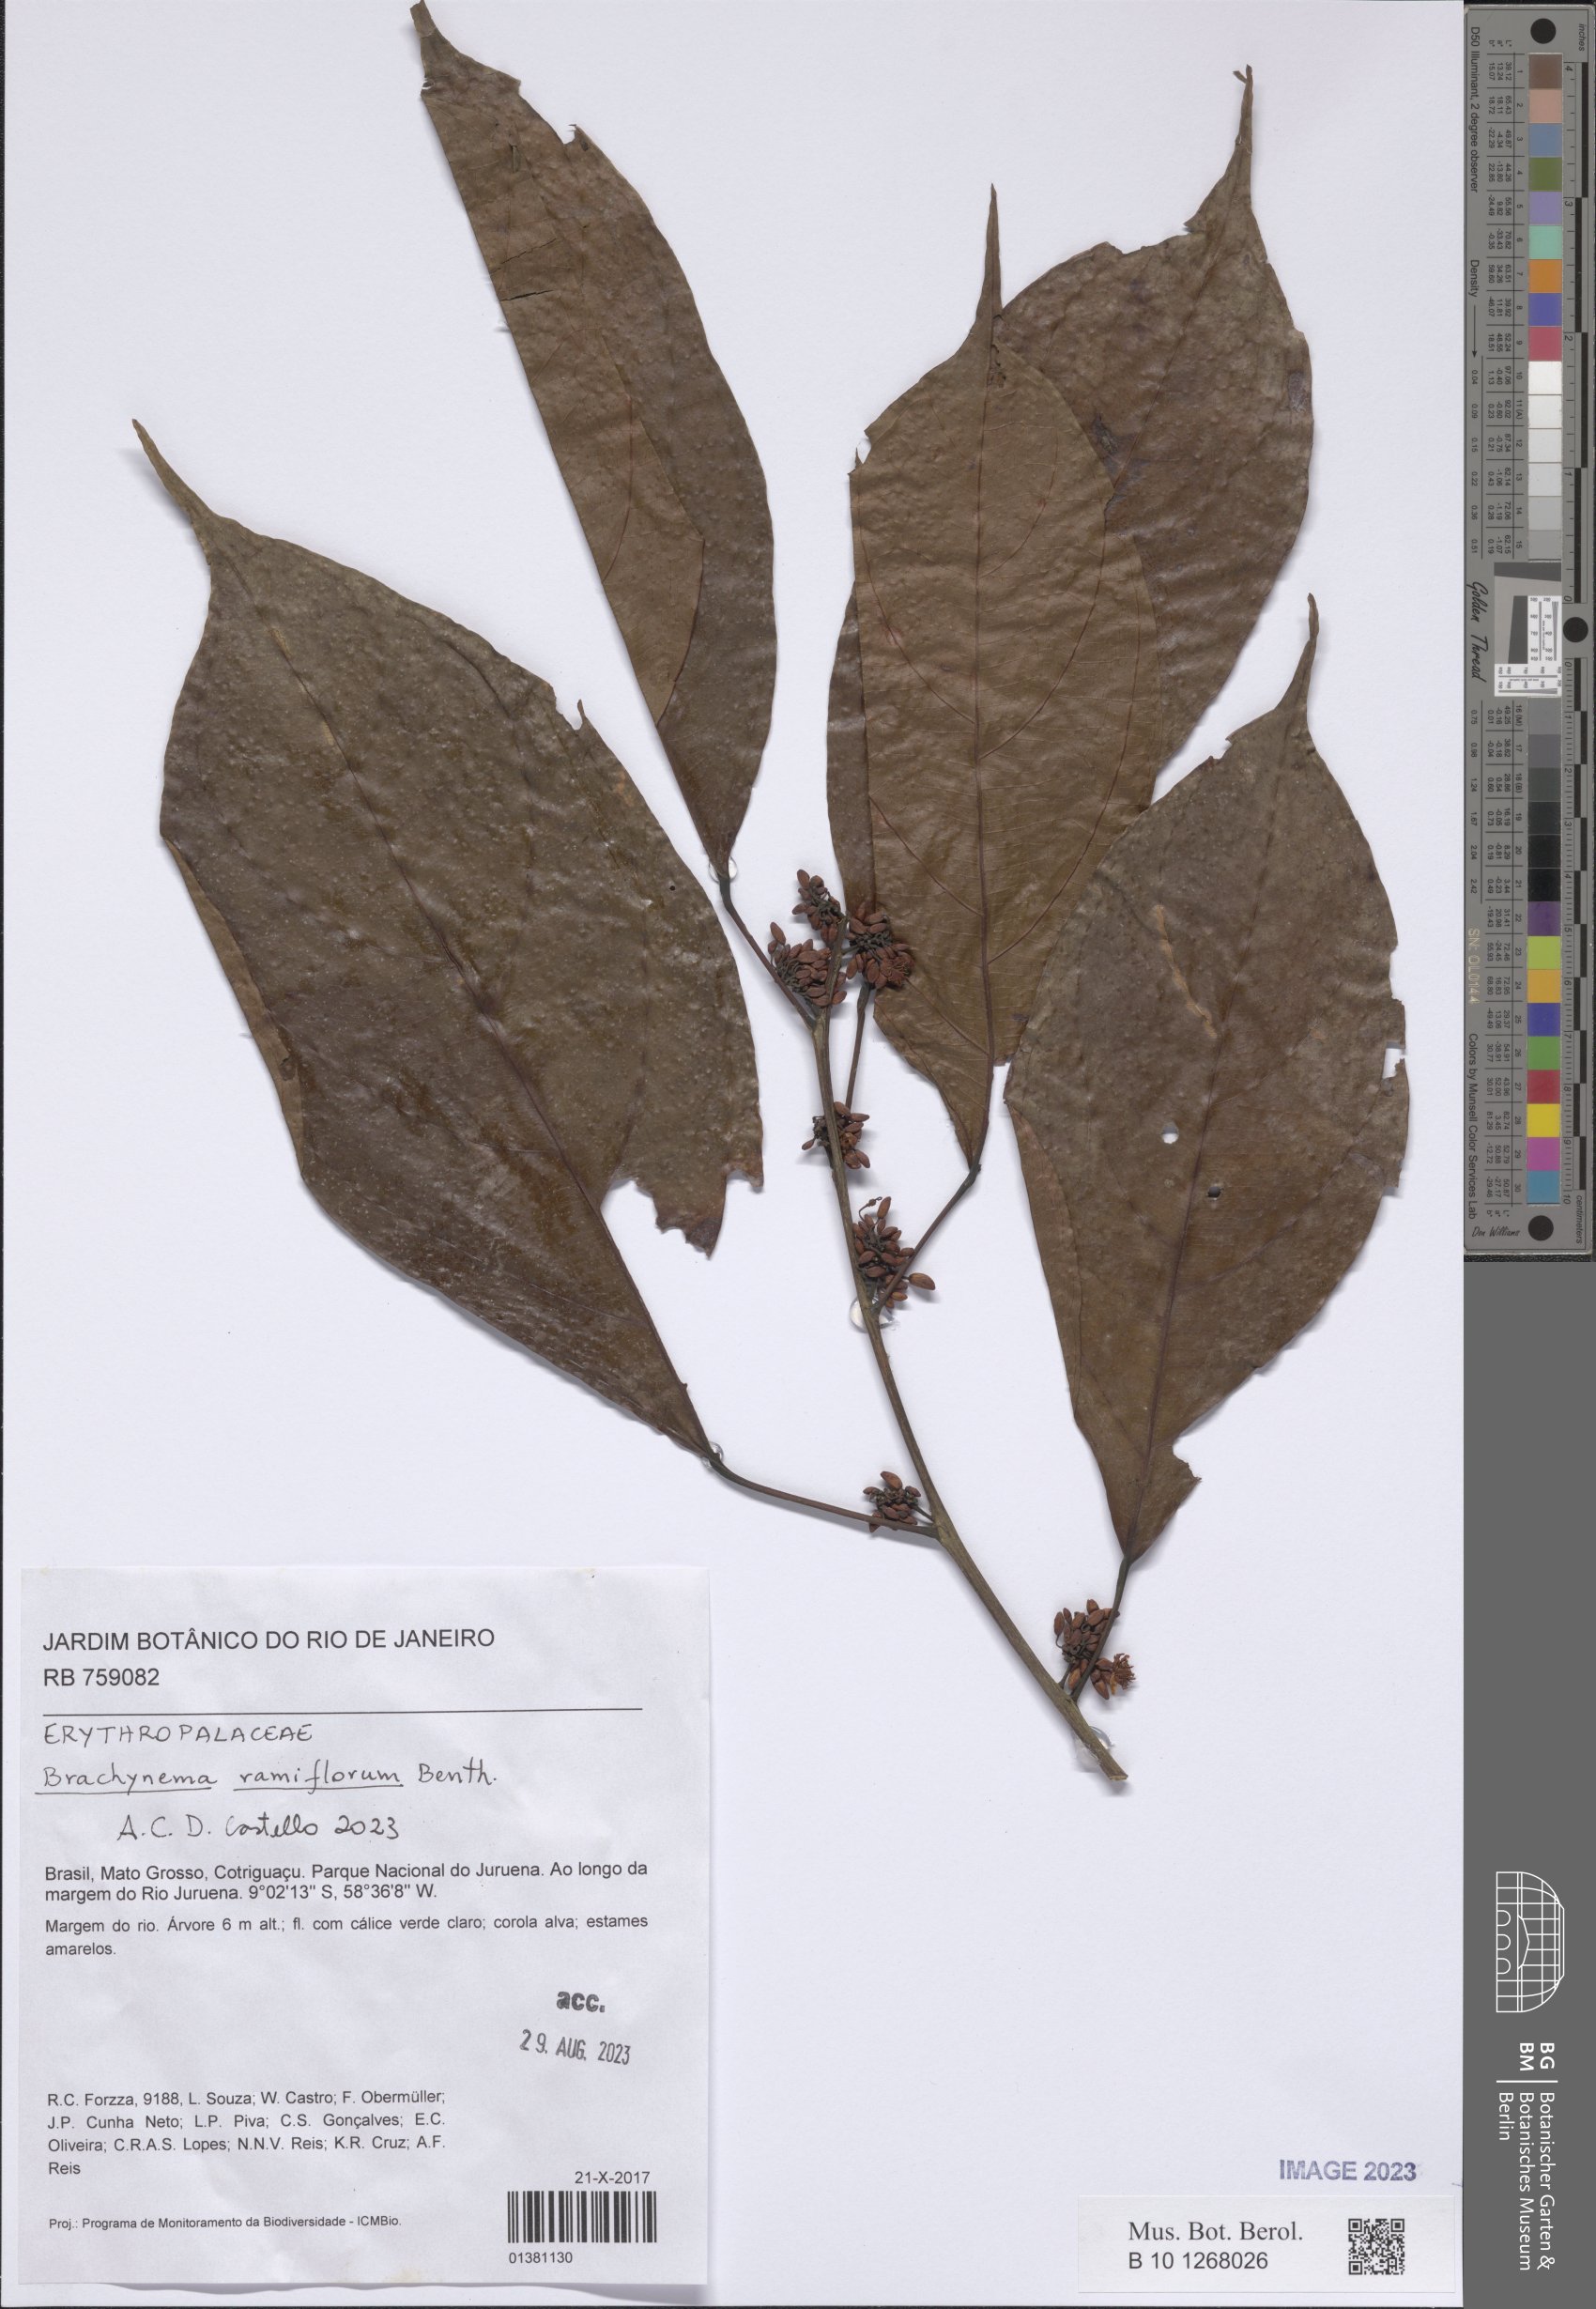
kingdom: Plantae
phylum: Tracheophyta
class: Magnoliopsida
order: Santalales
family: Erythropalaceae
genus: Brachynema
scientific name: Brachynema ramiflorum
